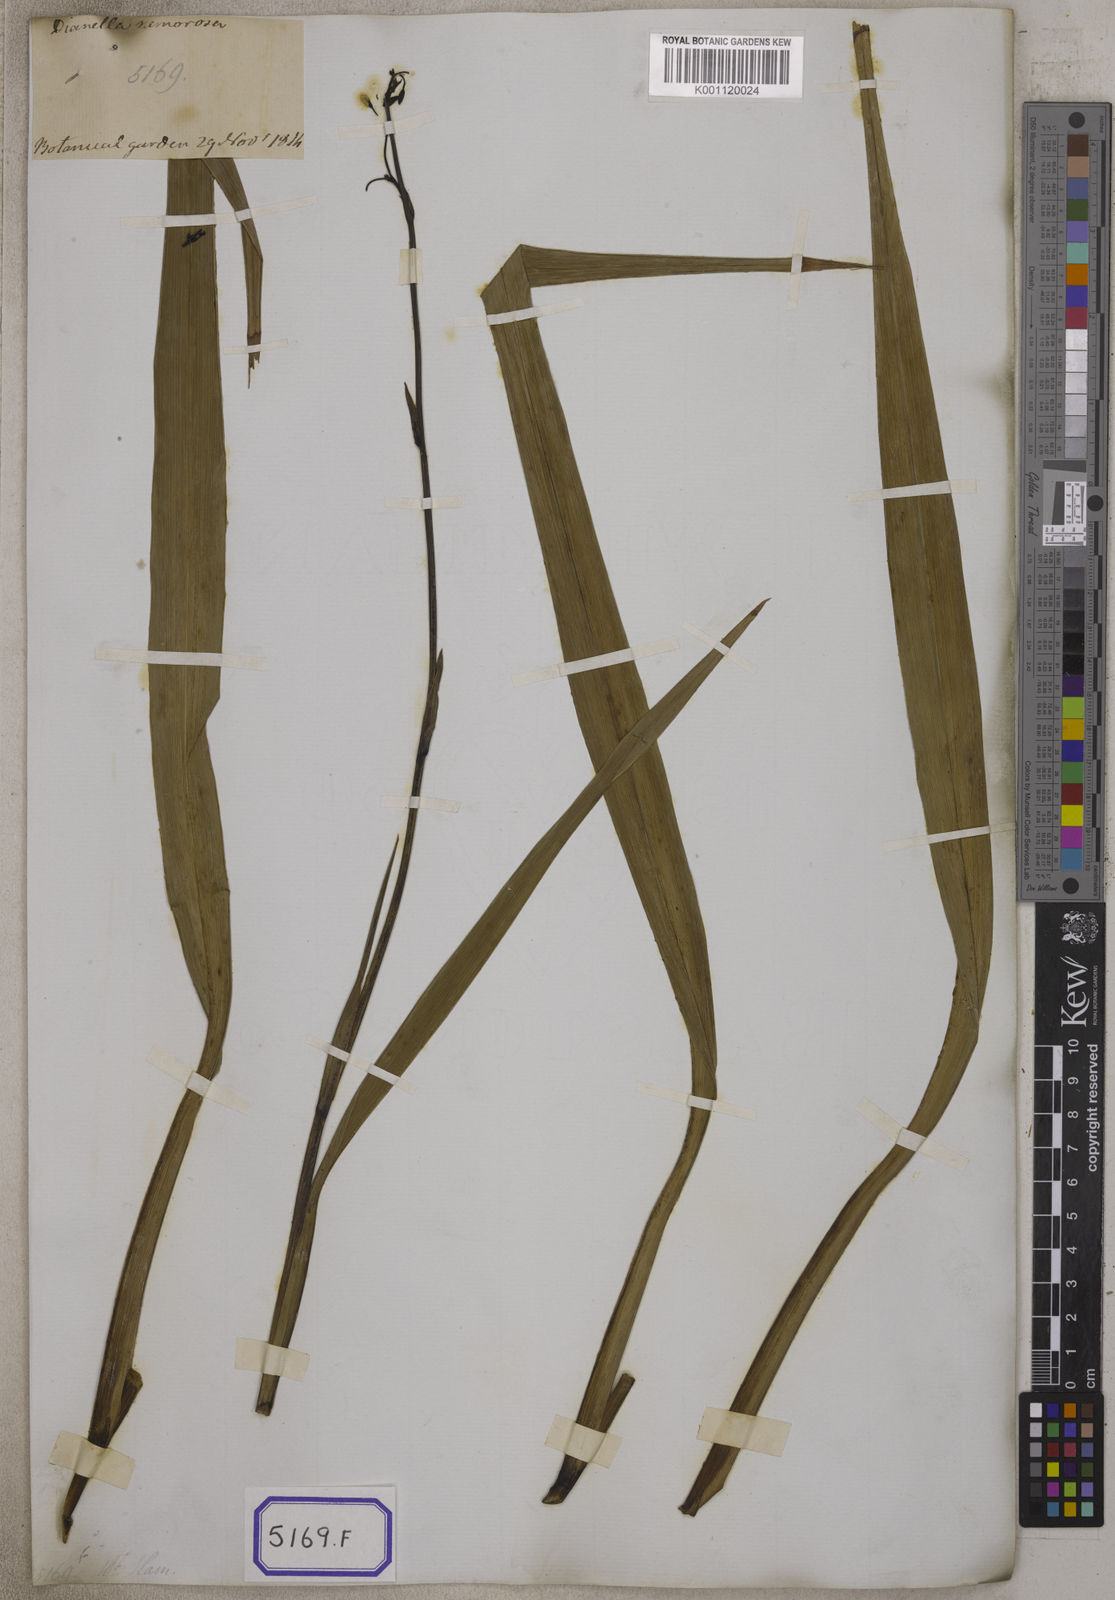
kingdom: Plantae
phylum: Tracheophyta
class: Liliopsida
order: Asparagales
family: Asphodelaceae
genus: Dianella
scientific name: Dianella ensifolia
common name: New zealand lilyplant
